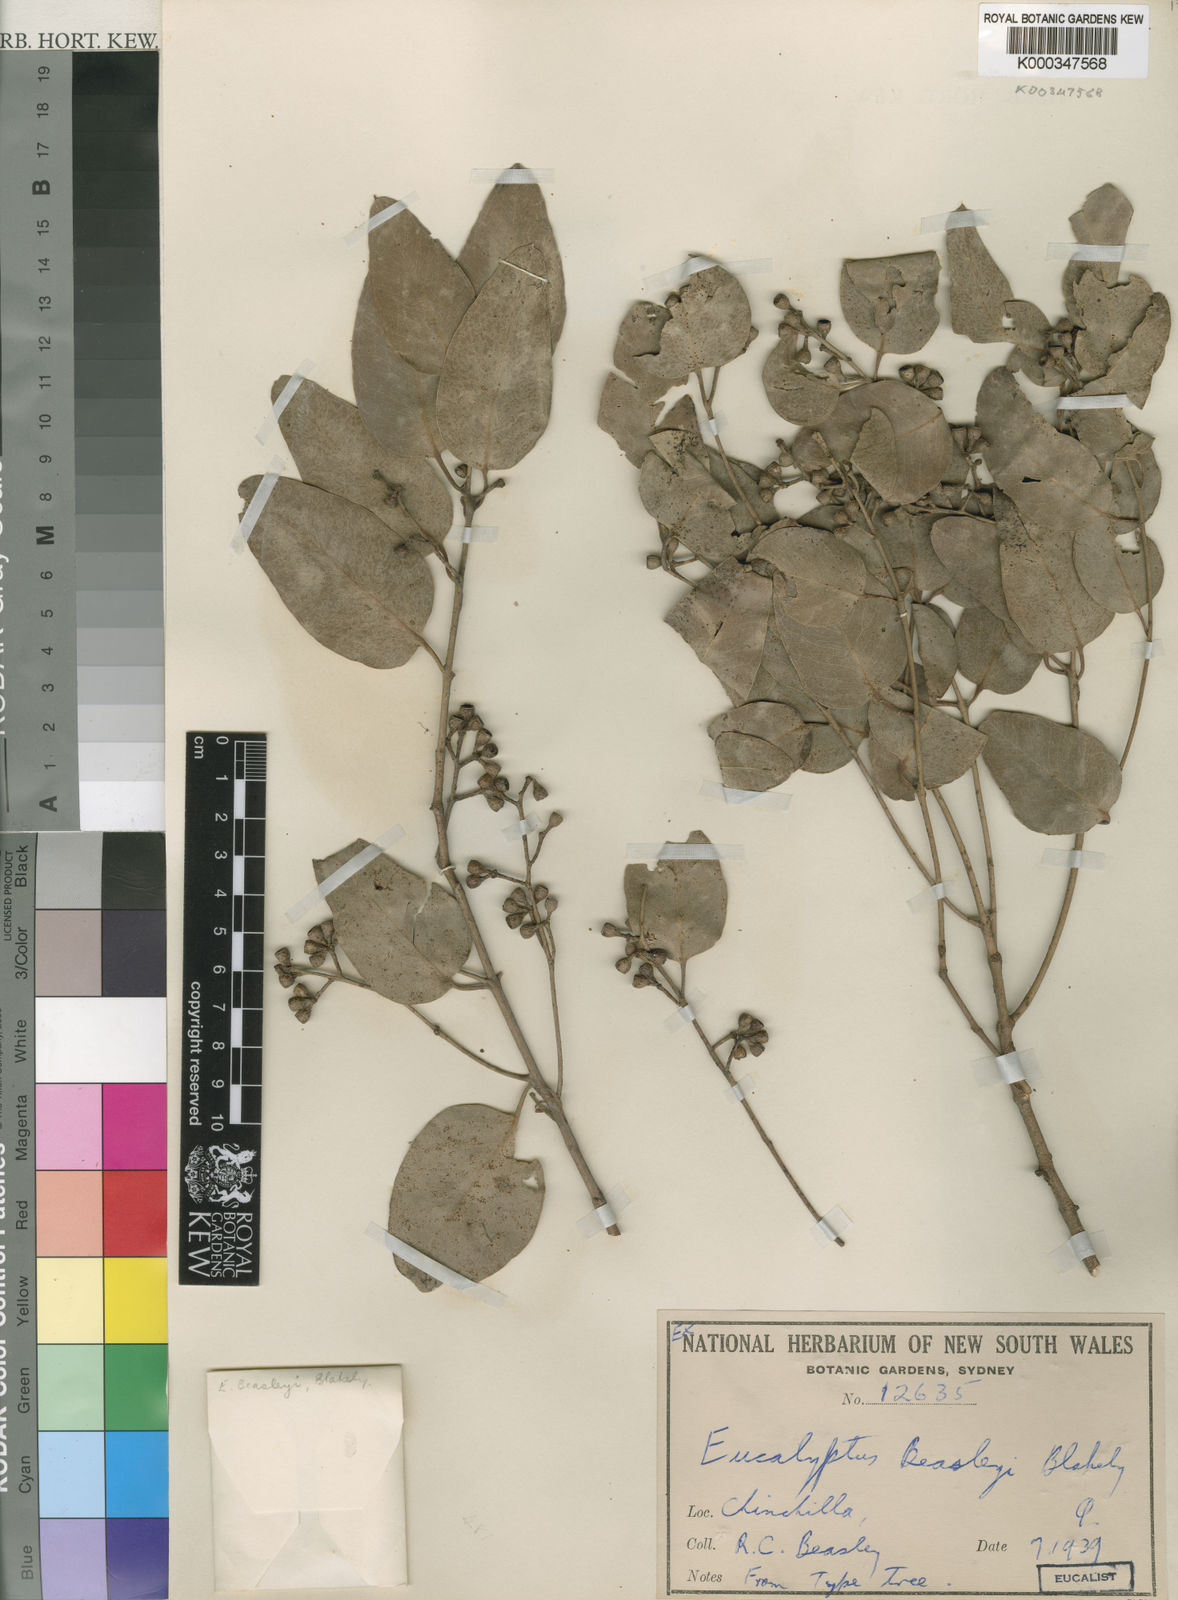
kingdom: Plantae
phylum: Tracheophyta
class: Magnoliopsida
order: Myrtales
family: Myrtaceae
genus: Eucalyptus
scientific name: Eucalyptus beaselyi
